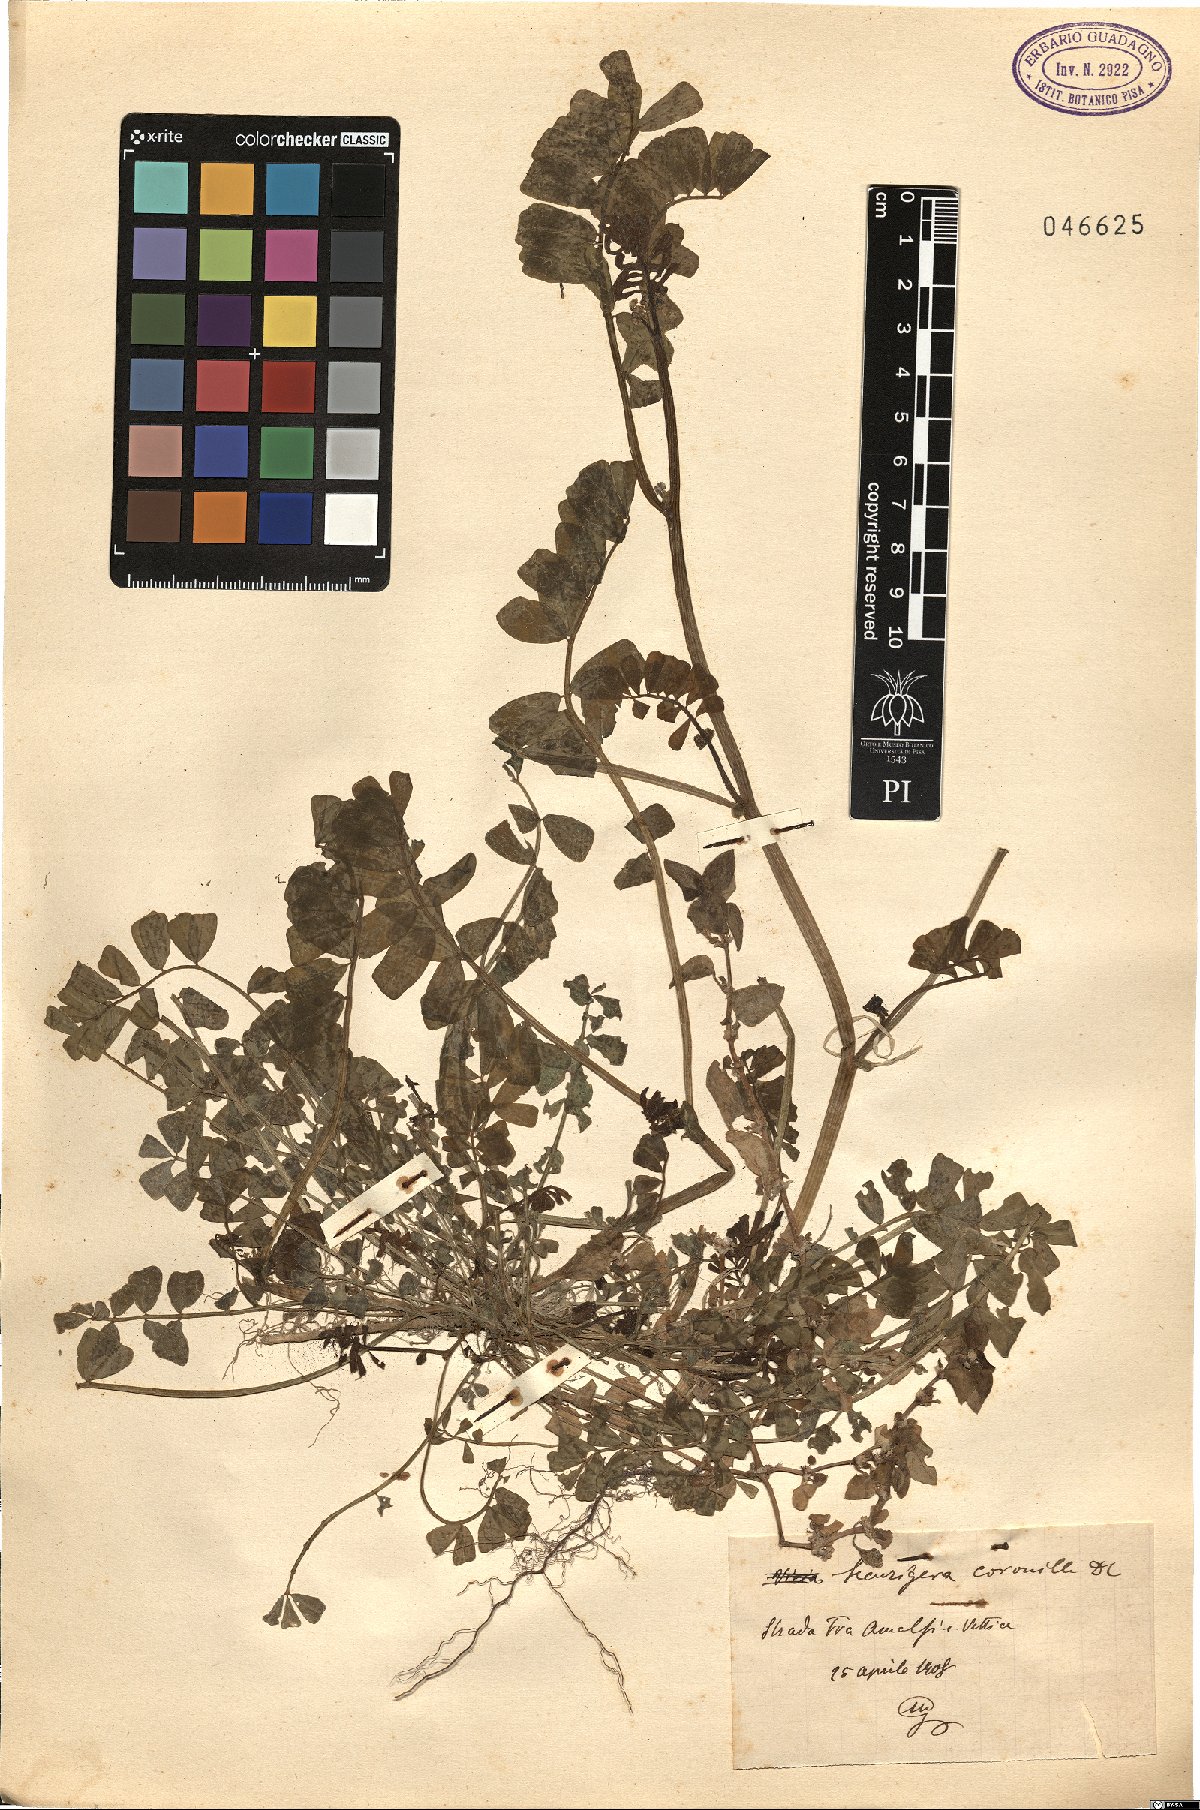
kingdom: Plantae
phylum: Tracheophyta
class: Magnoliopsida
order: Fabales
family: Fabaceae
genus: Coronilla
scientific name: Coronilla securidaca
